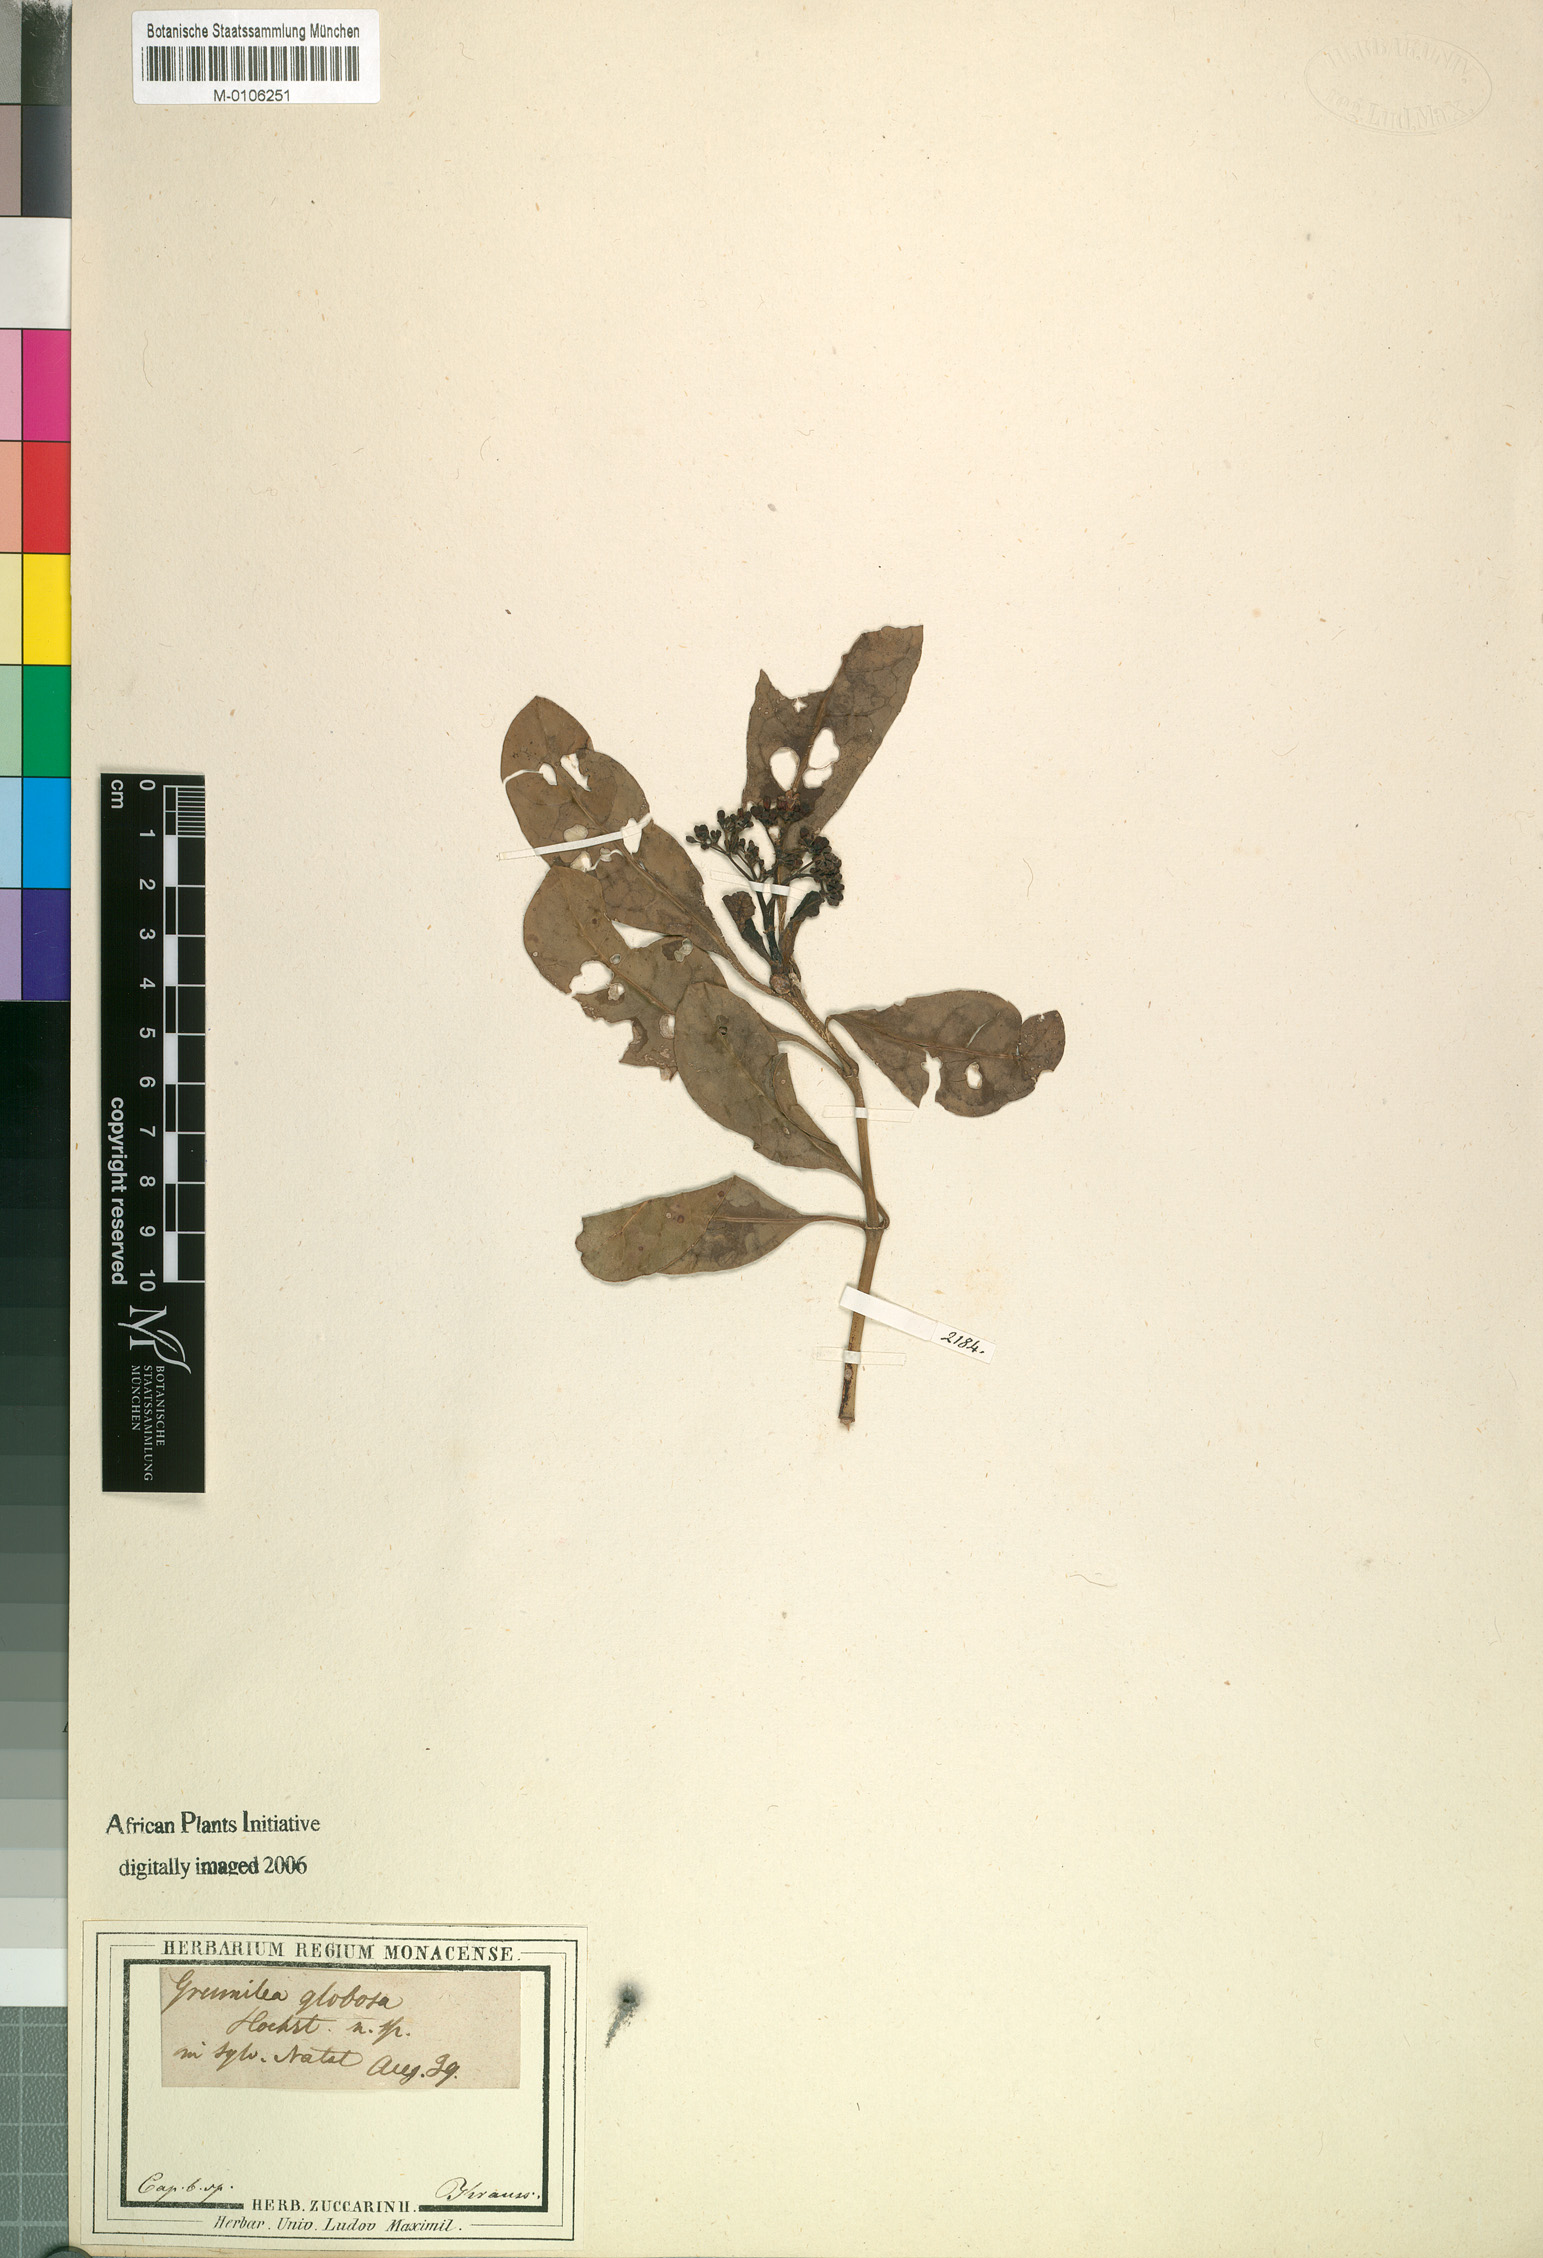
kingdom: Plantae
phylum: Tracheophyta
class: Magnoliopsida
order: Gentianales
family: Rubiaceae
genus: Psychotria
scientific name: Psychotria capensis
